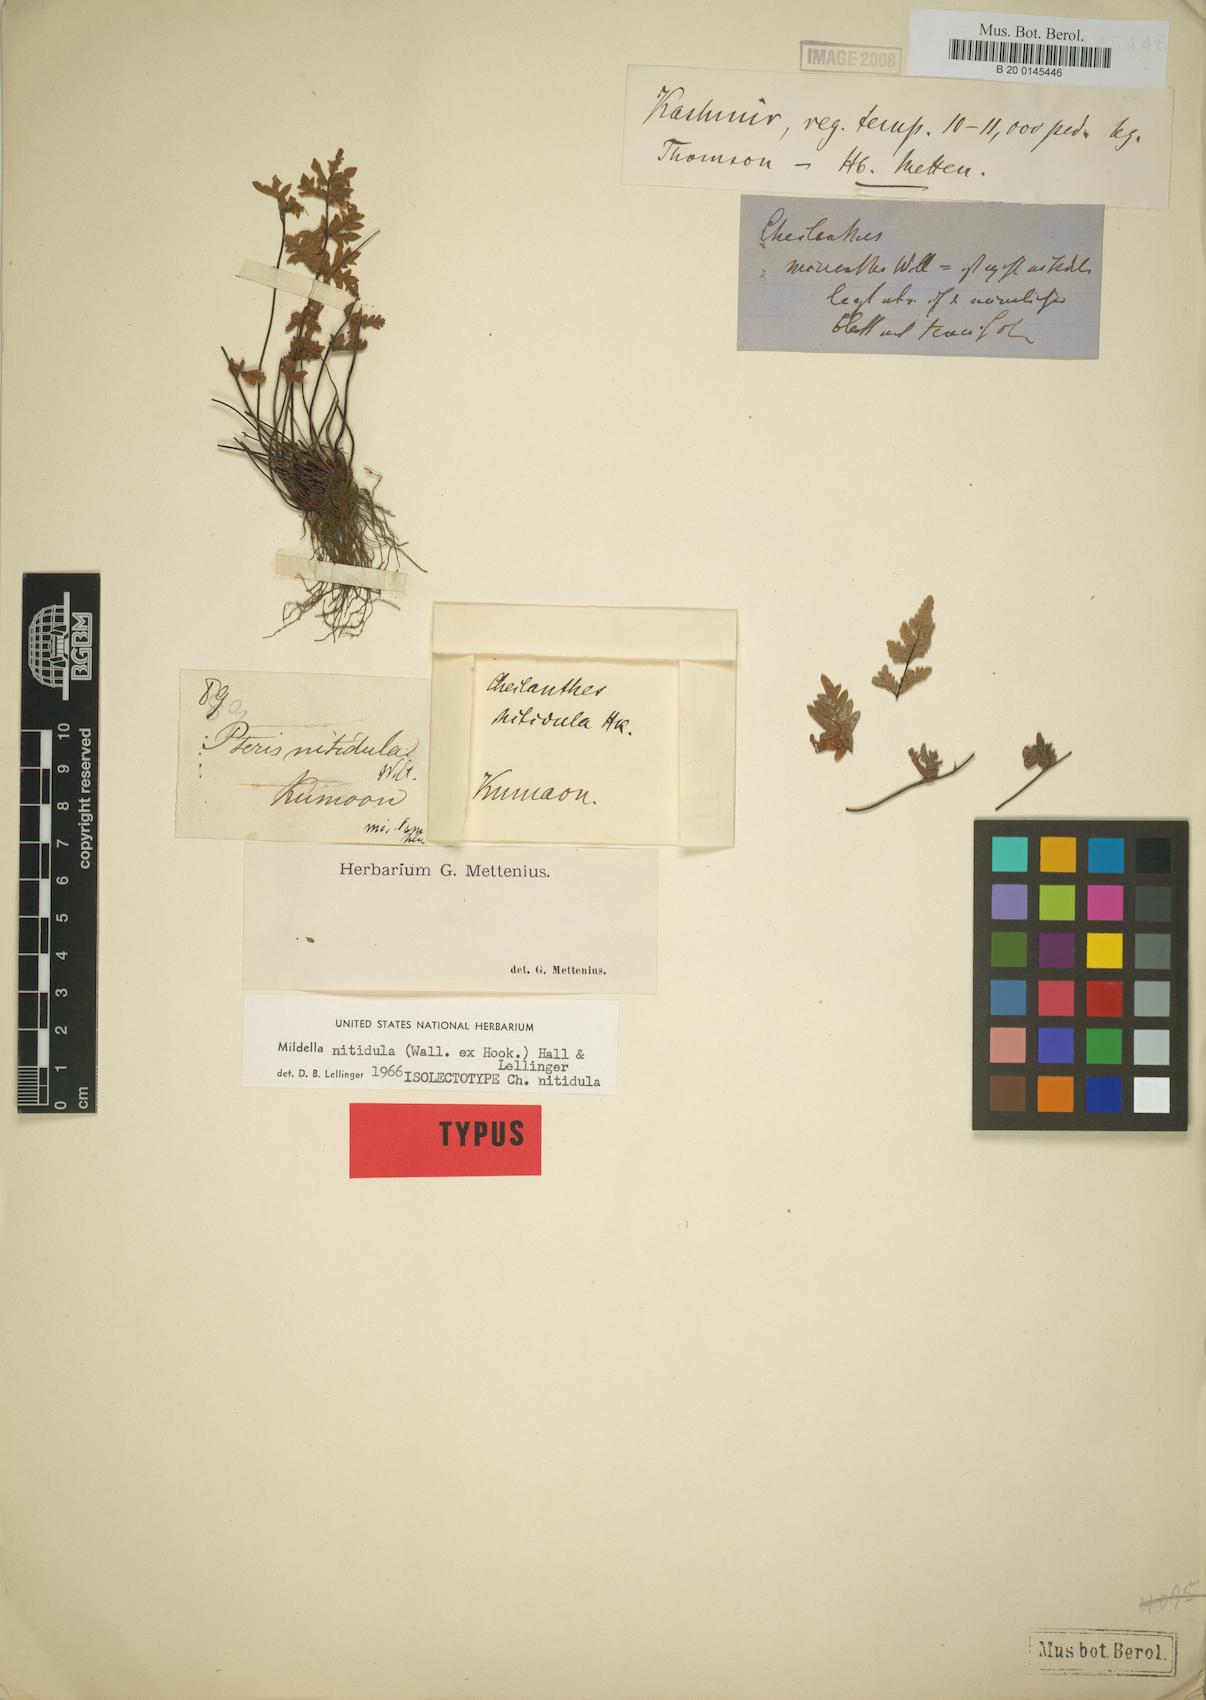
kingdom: Plantae
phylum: Tracheophyta
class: Polypodiopsida
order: Polypodiales
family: Pteridaceae
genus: Mildella
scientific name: Mildella nitidula
